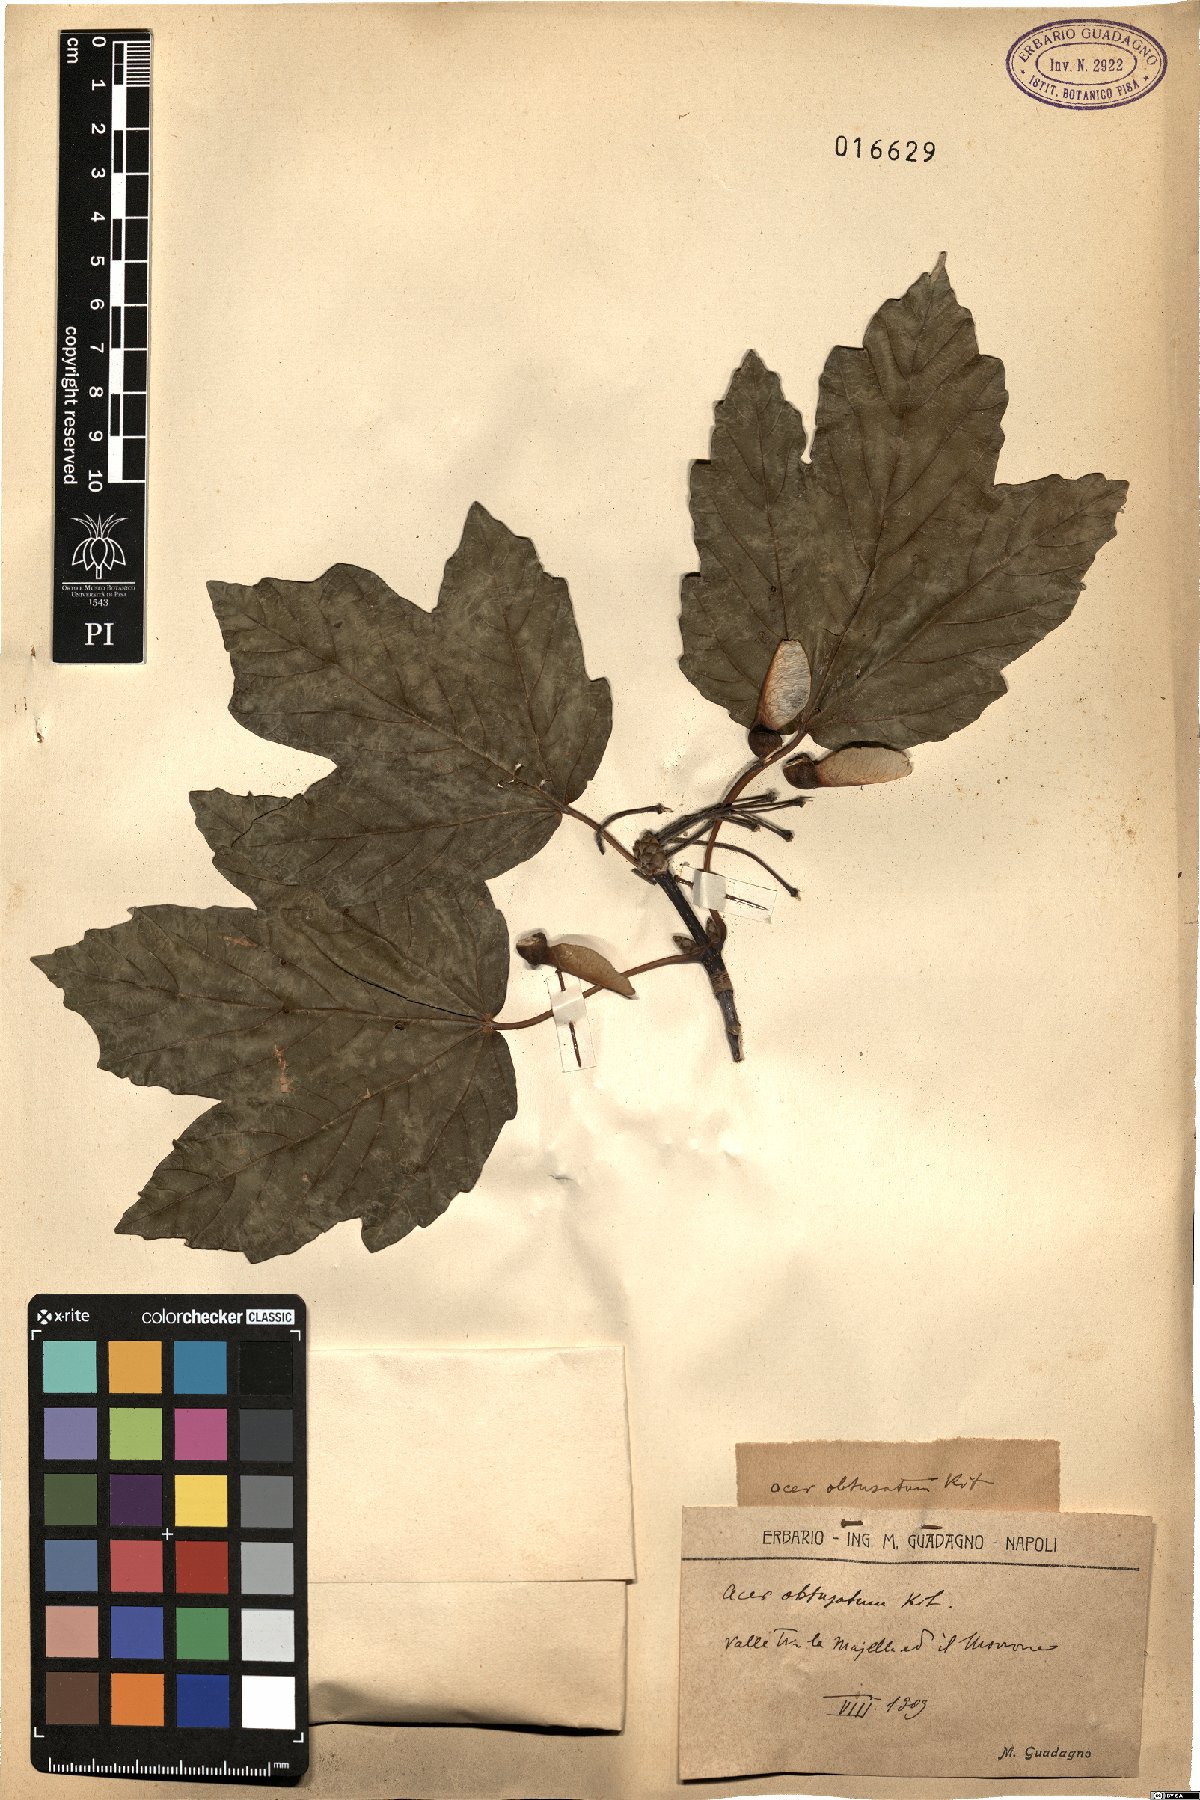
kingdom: Plantae
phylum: Tracheophyta
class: Magnoliopsida
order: Sapindales
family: Sapindaceae
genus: Acer
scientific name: Acer obtusatum
